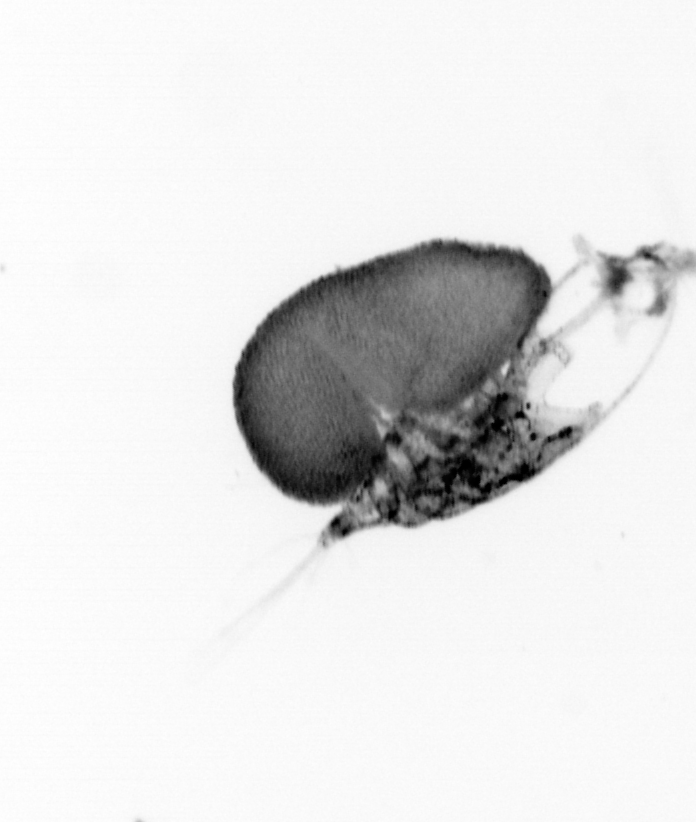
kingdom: Animalia
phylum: Arthropoda
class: Copepoda
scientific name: Copepoda
